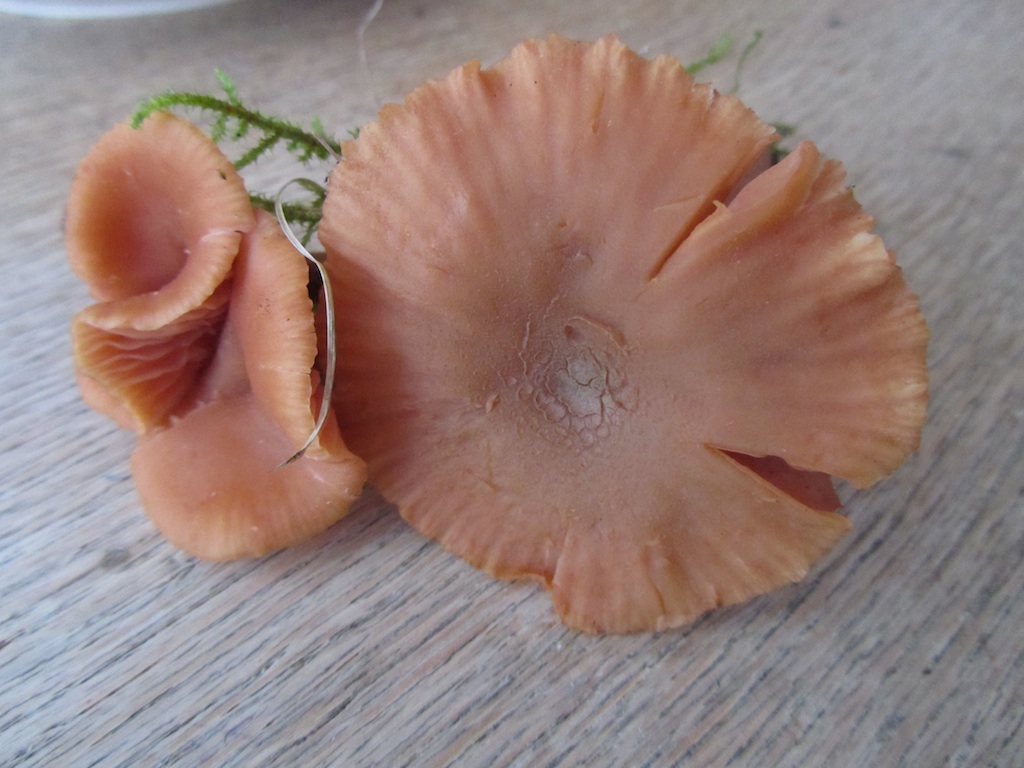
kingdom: Fungi
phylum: Basidiomycota
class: Agaricomycetes
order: Agaricales
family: Hydnangiaceae
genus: Laccaria
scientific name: Laccaria proxima
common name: stor ametysthat
